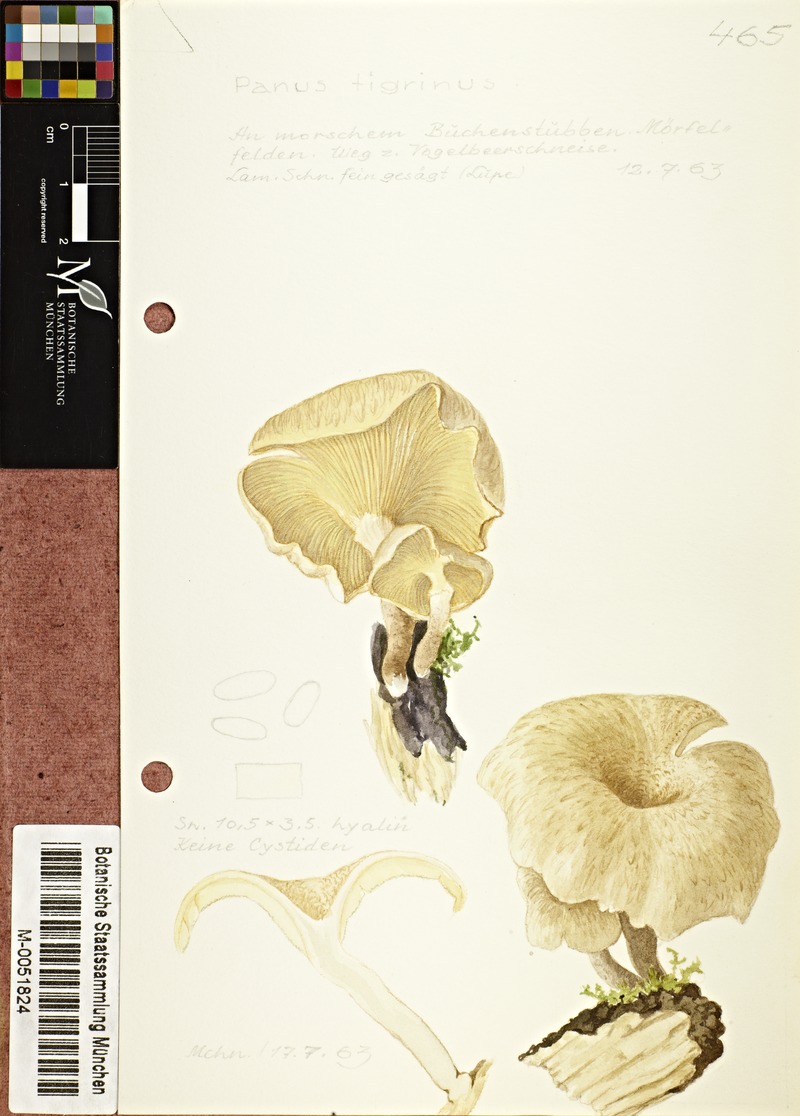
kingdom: Fungi
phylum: Basidiomycota
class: Agaricomycetes
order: Polyporales
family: Polyporaceae
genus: Lentinus
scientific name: Lentinus tigrinus
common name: Tiger sawgill
